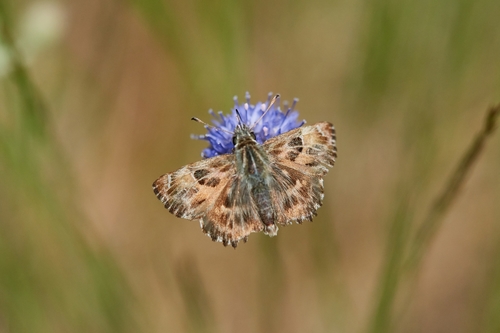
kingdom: Animalia
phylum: Arthropoda
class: Insecta
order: Lepidoptera
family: Hesperiidae
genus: Carcharodus
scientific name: Carcharodus alceae
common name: Mallow skipper
